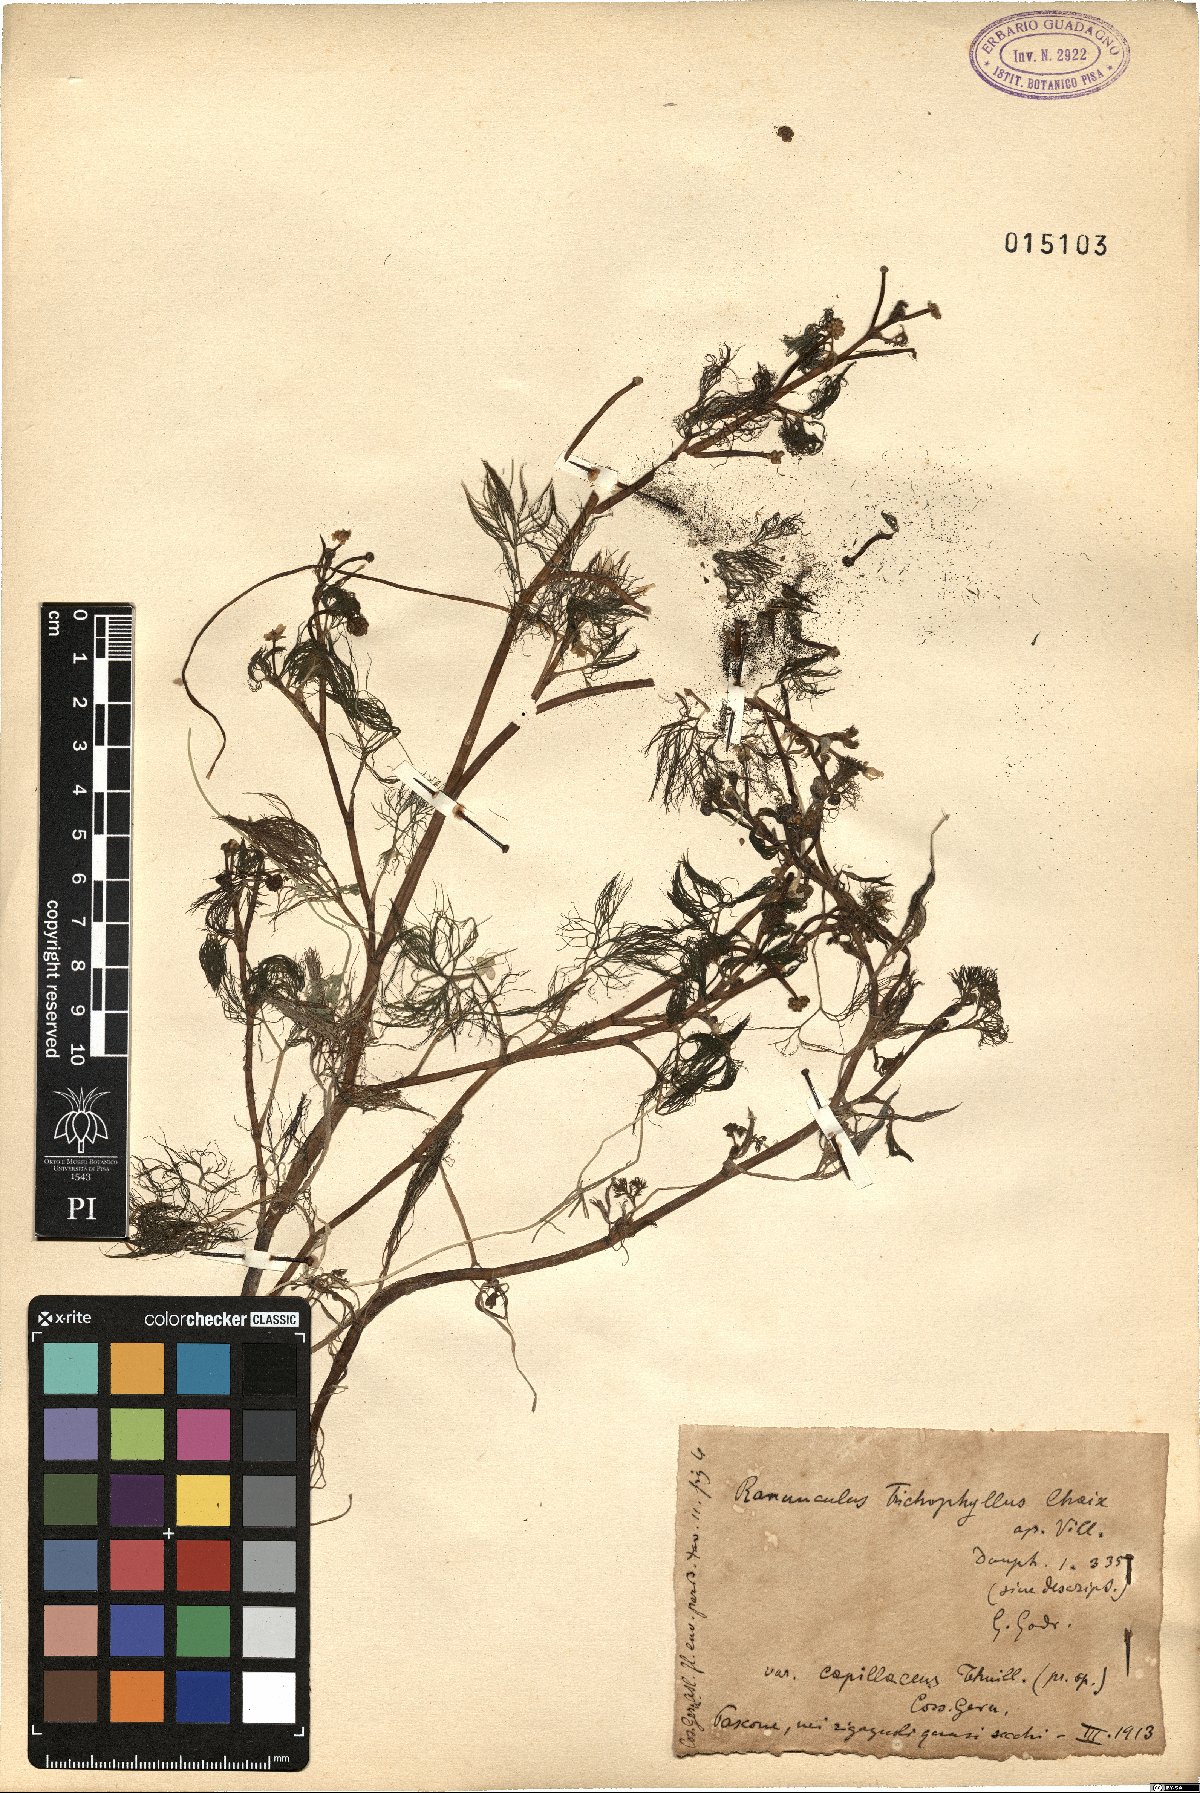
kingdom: Plantae
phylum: Tracheophyta
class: Magnoliopsida
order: Ranunculales
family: Ranunculaceae
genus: Ranunculus
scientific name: Ranunculus trichophyllus
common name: Thread-leaved water-crowfoot
